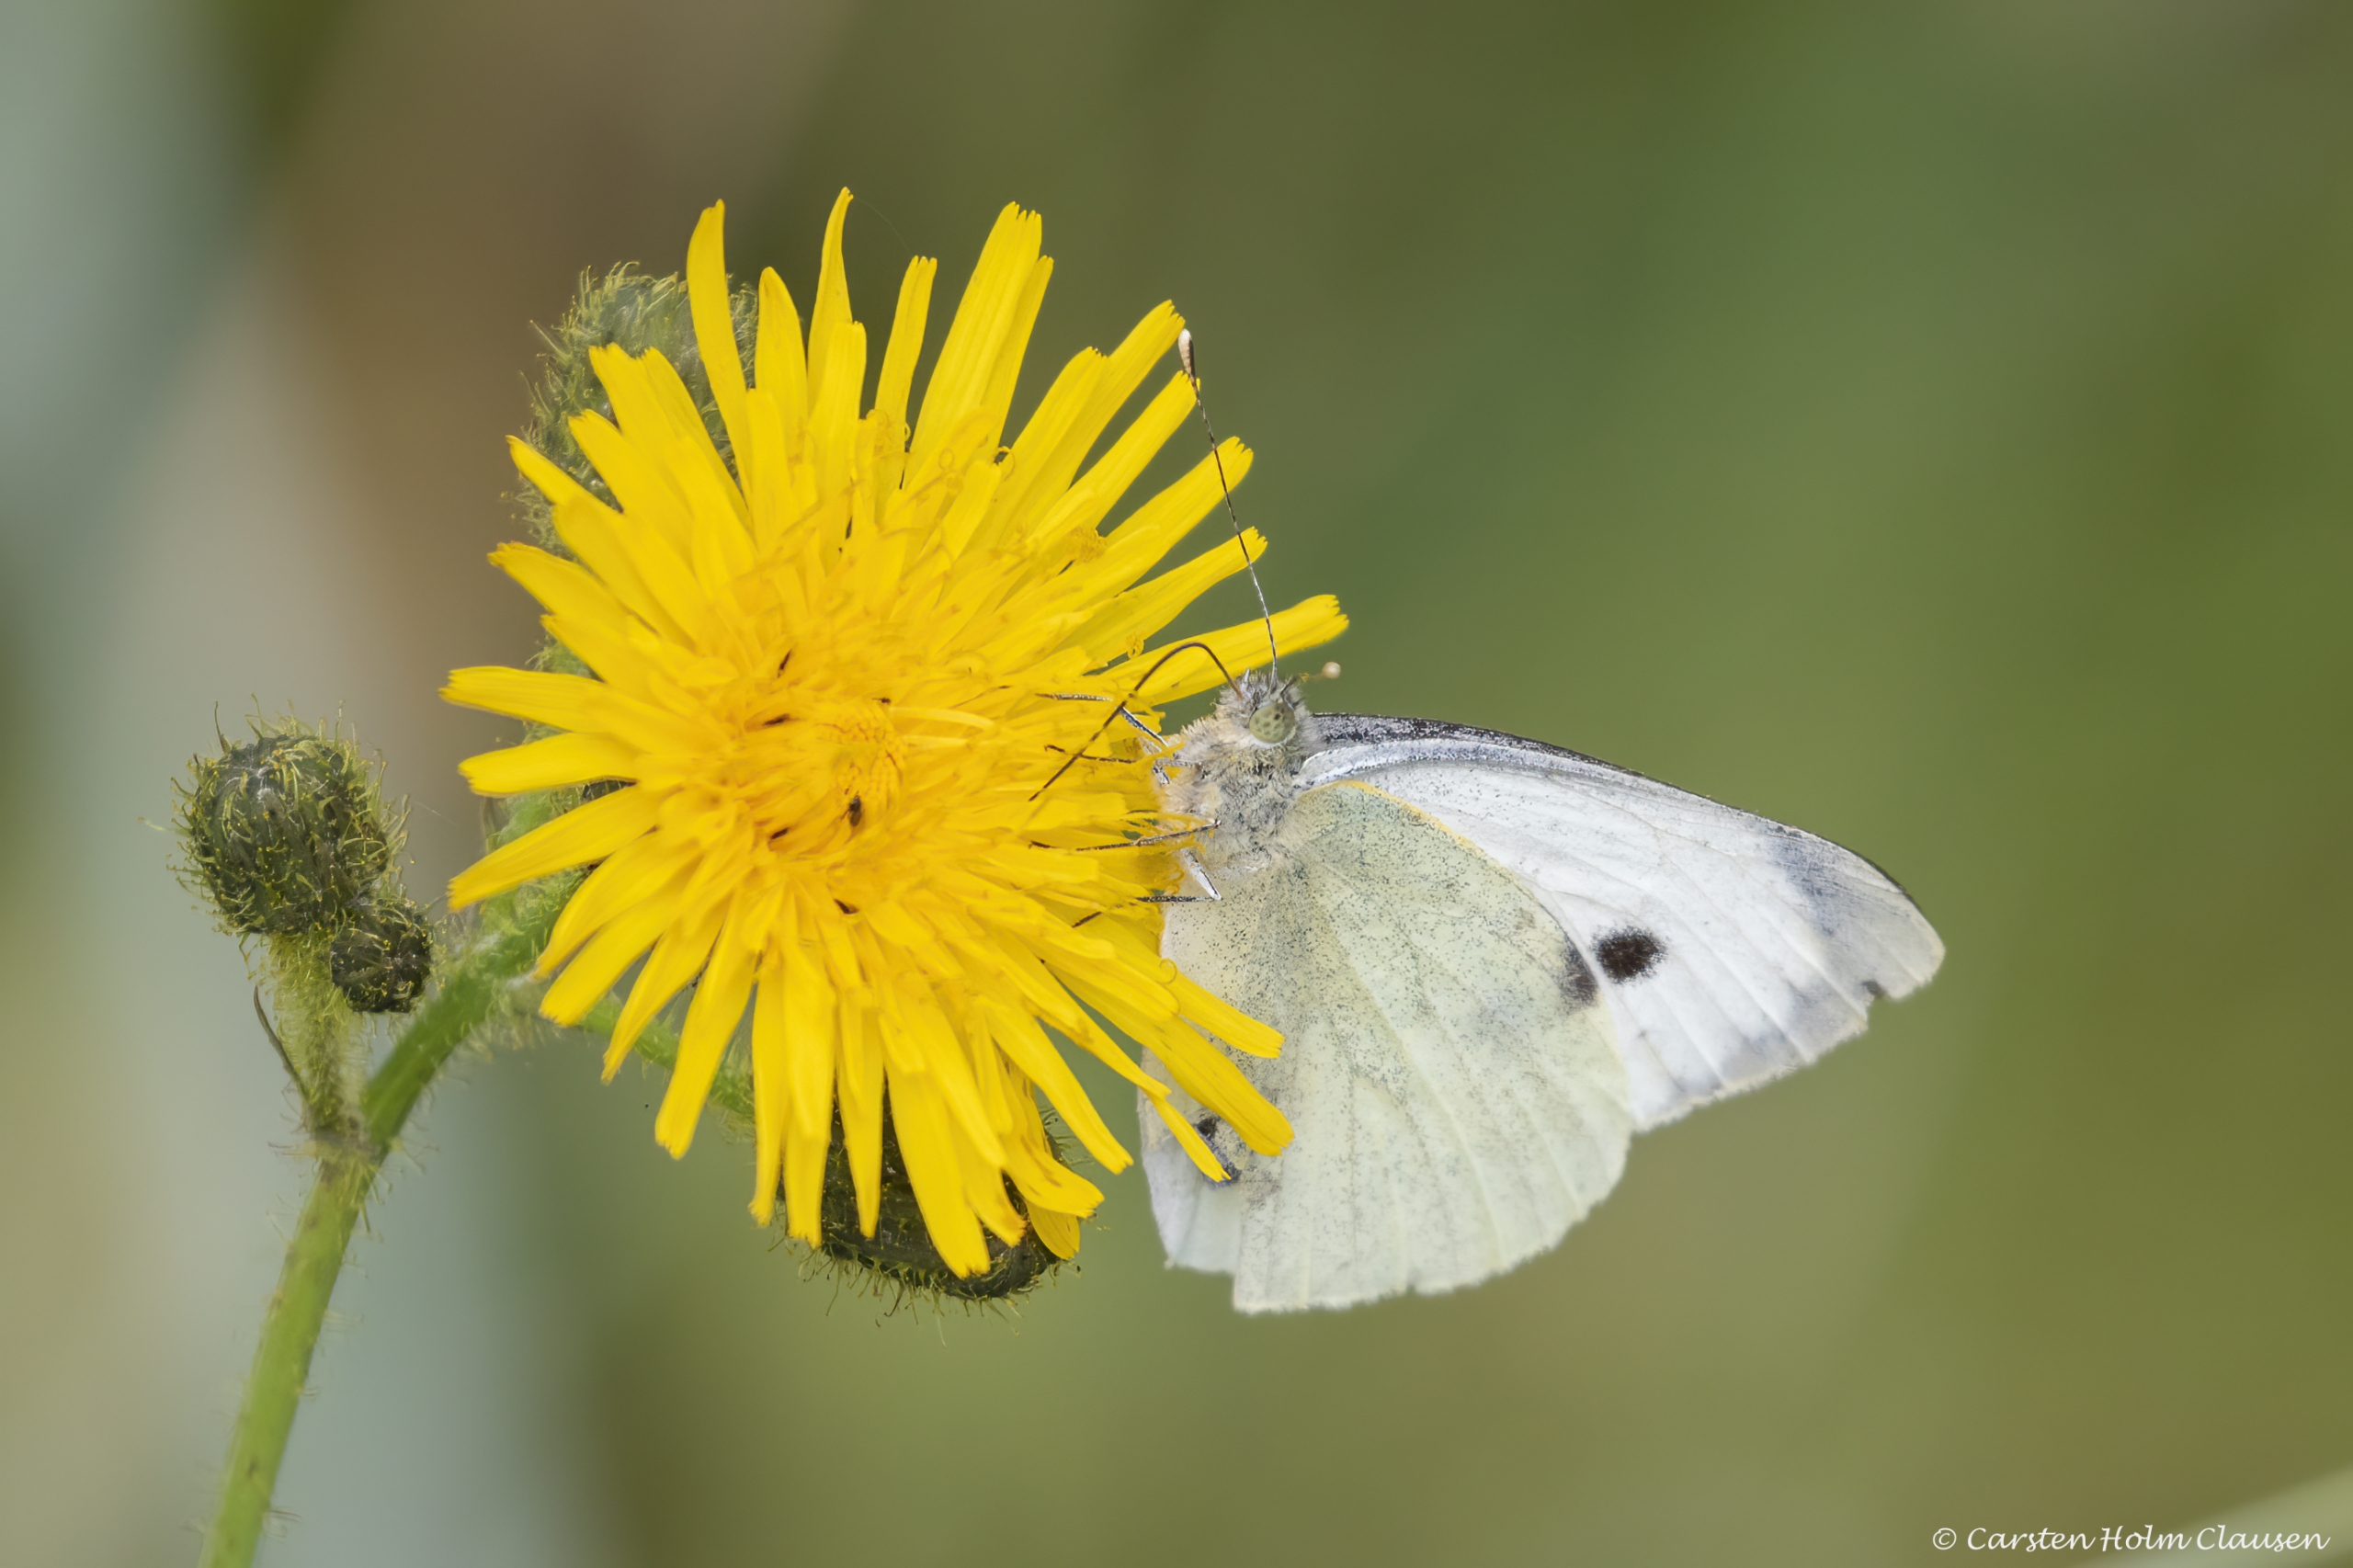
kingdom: Animalia
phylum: Arthropoda
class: Insecta
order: Lepidoptera
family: Pieridae
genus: Pieris
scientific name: Pieris brassicae
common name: Stor kålsommerfugl
